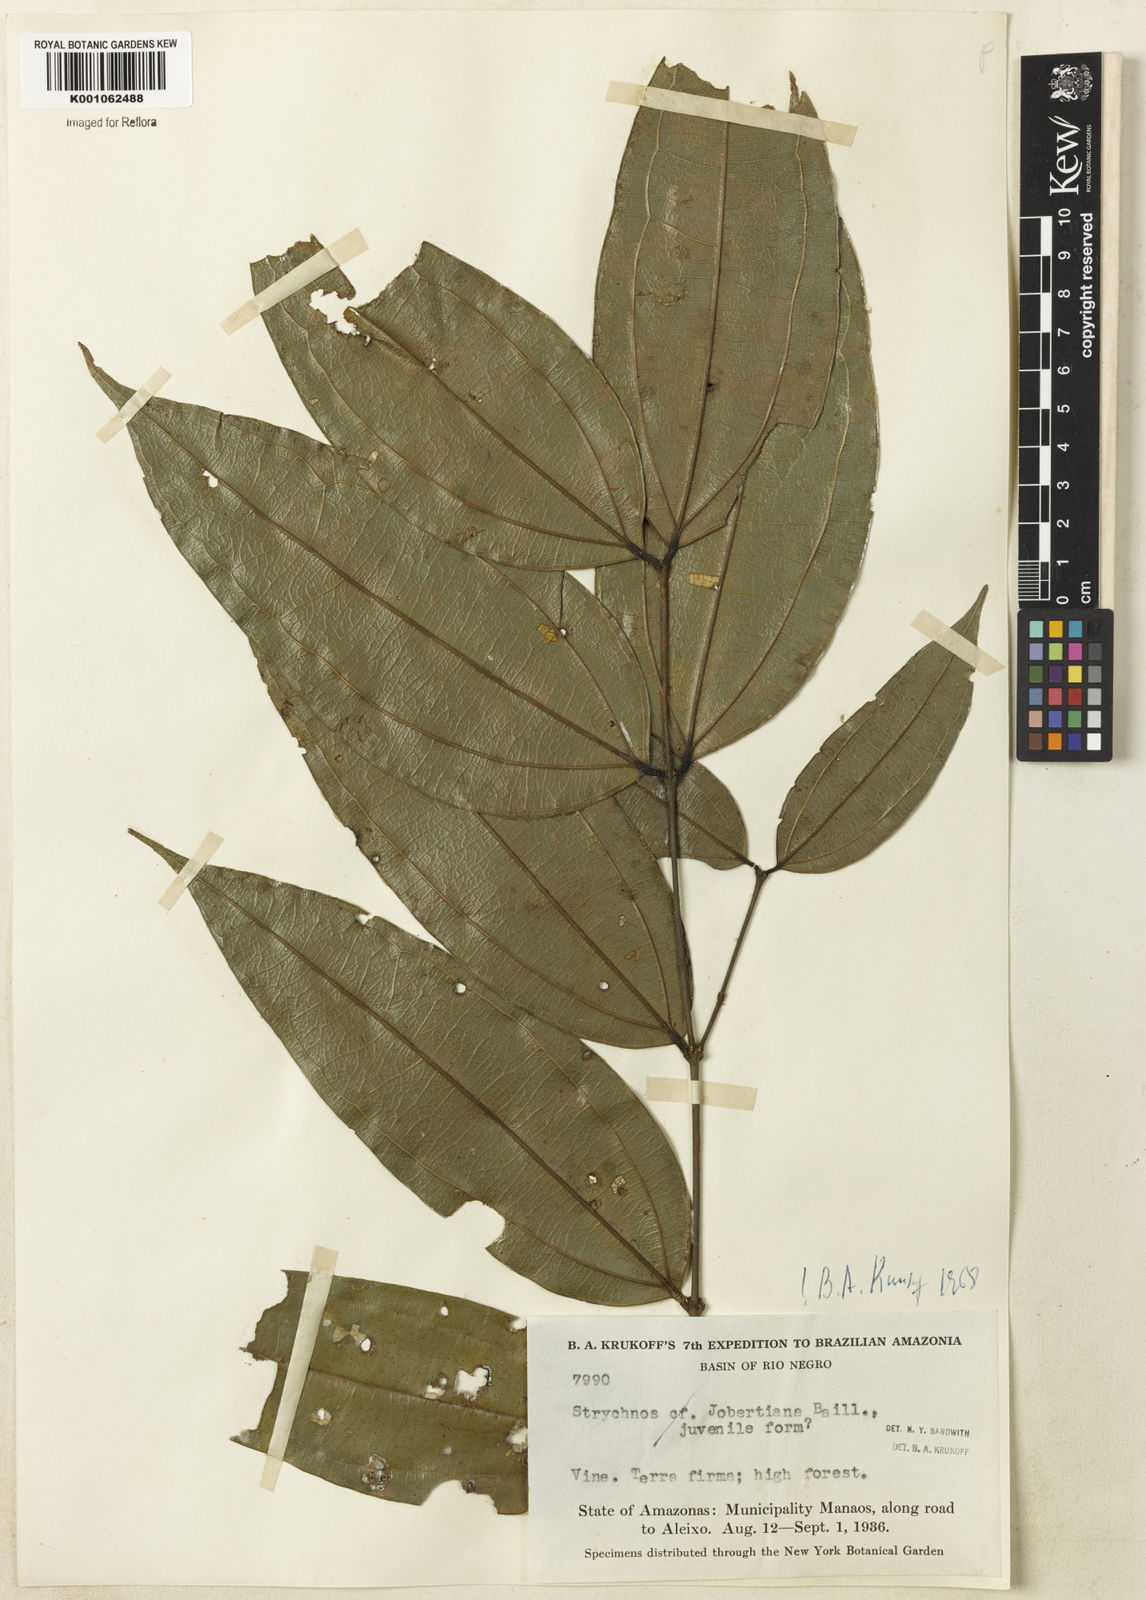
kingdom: Plantae
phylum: Tracheophyta
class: Magnoliopsida
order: Gentianales
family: Loganiaceae
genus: Strychnos
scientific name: Strychnos jobertiana
